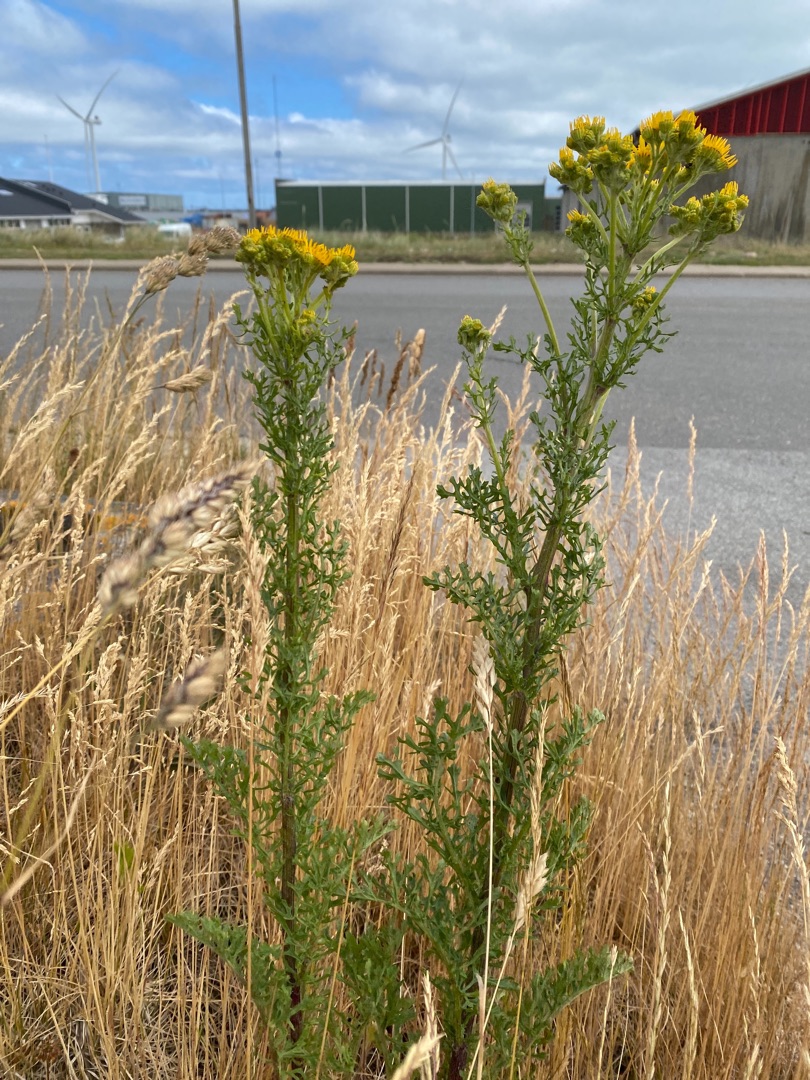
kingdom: Plantae
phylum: Tracheophyta
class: Magnoliopsida
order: Asterales
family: Asteraceae
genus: Jacobaea
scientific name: Jacobaea vulgaris
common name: Eng-brandbæger
